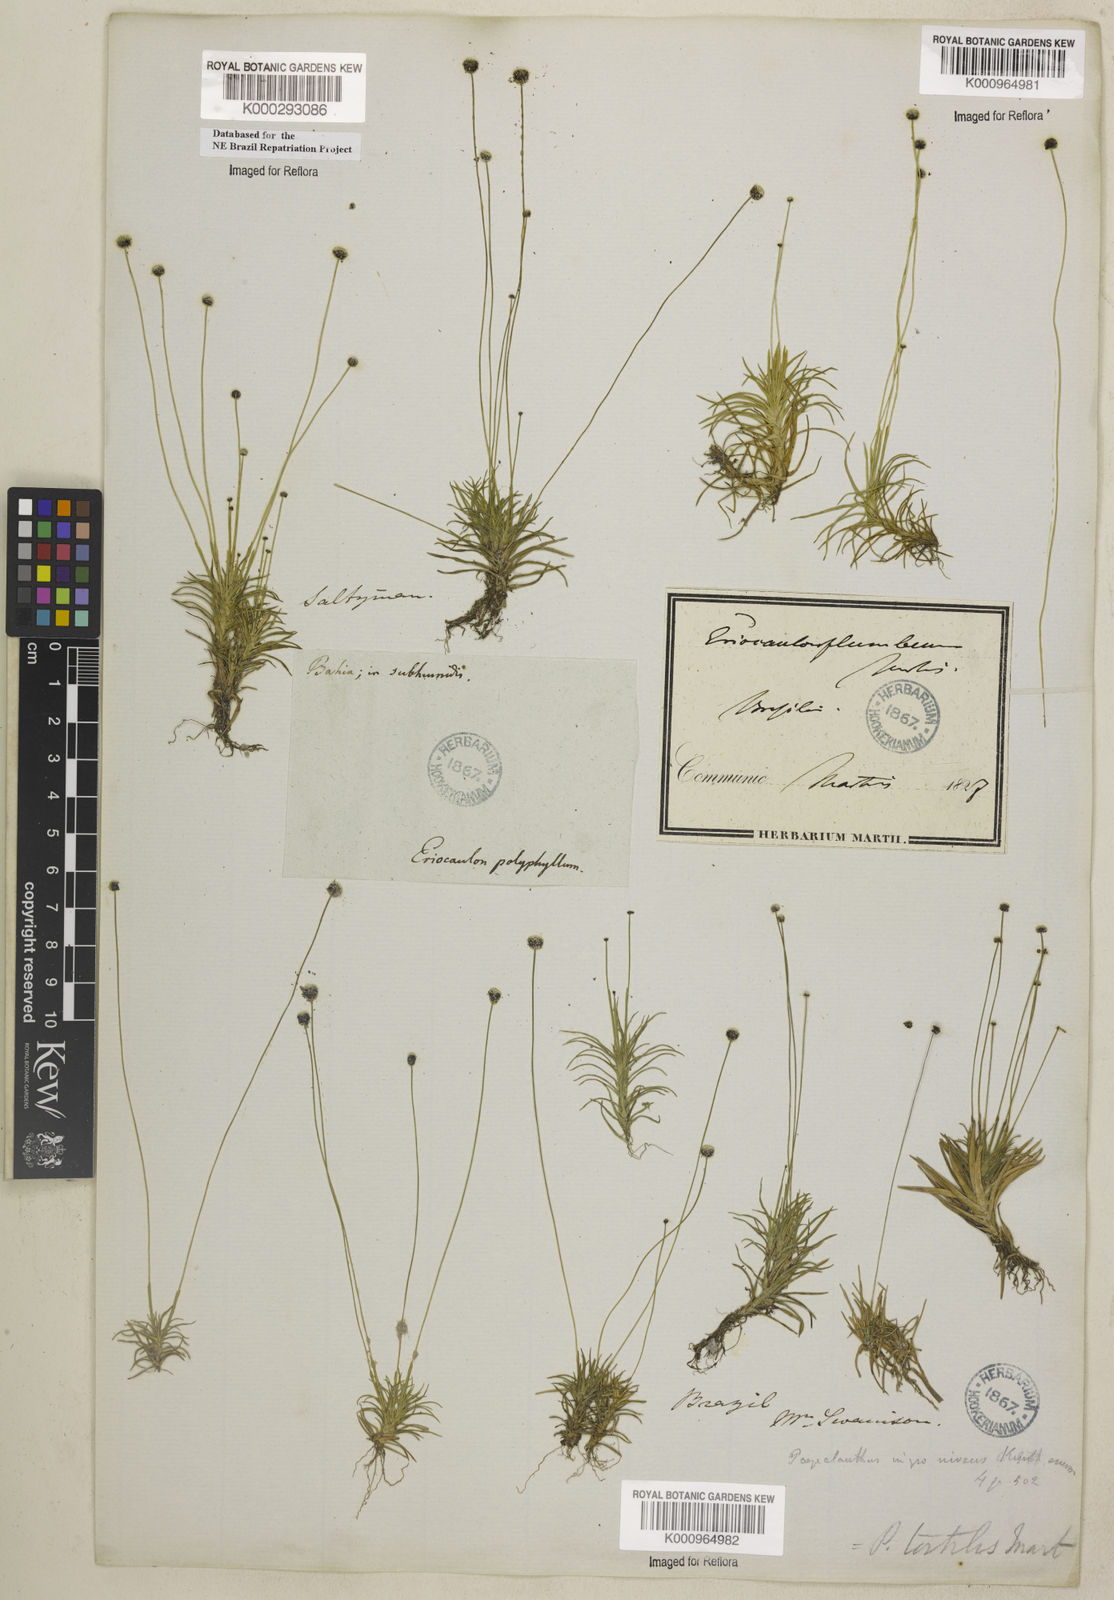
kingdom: Plantae
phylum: Tracheophyta
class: Liliopsida
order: Poales
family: Eriocaulaceae
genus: Paepalanthus
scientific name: Paepalanthus
